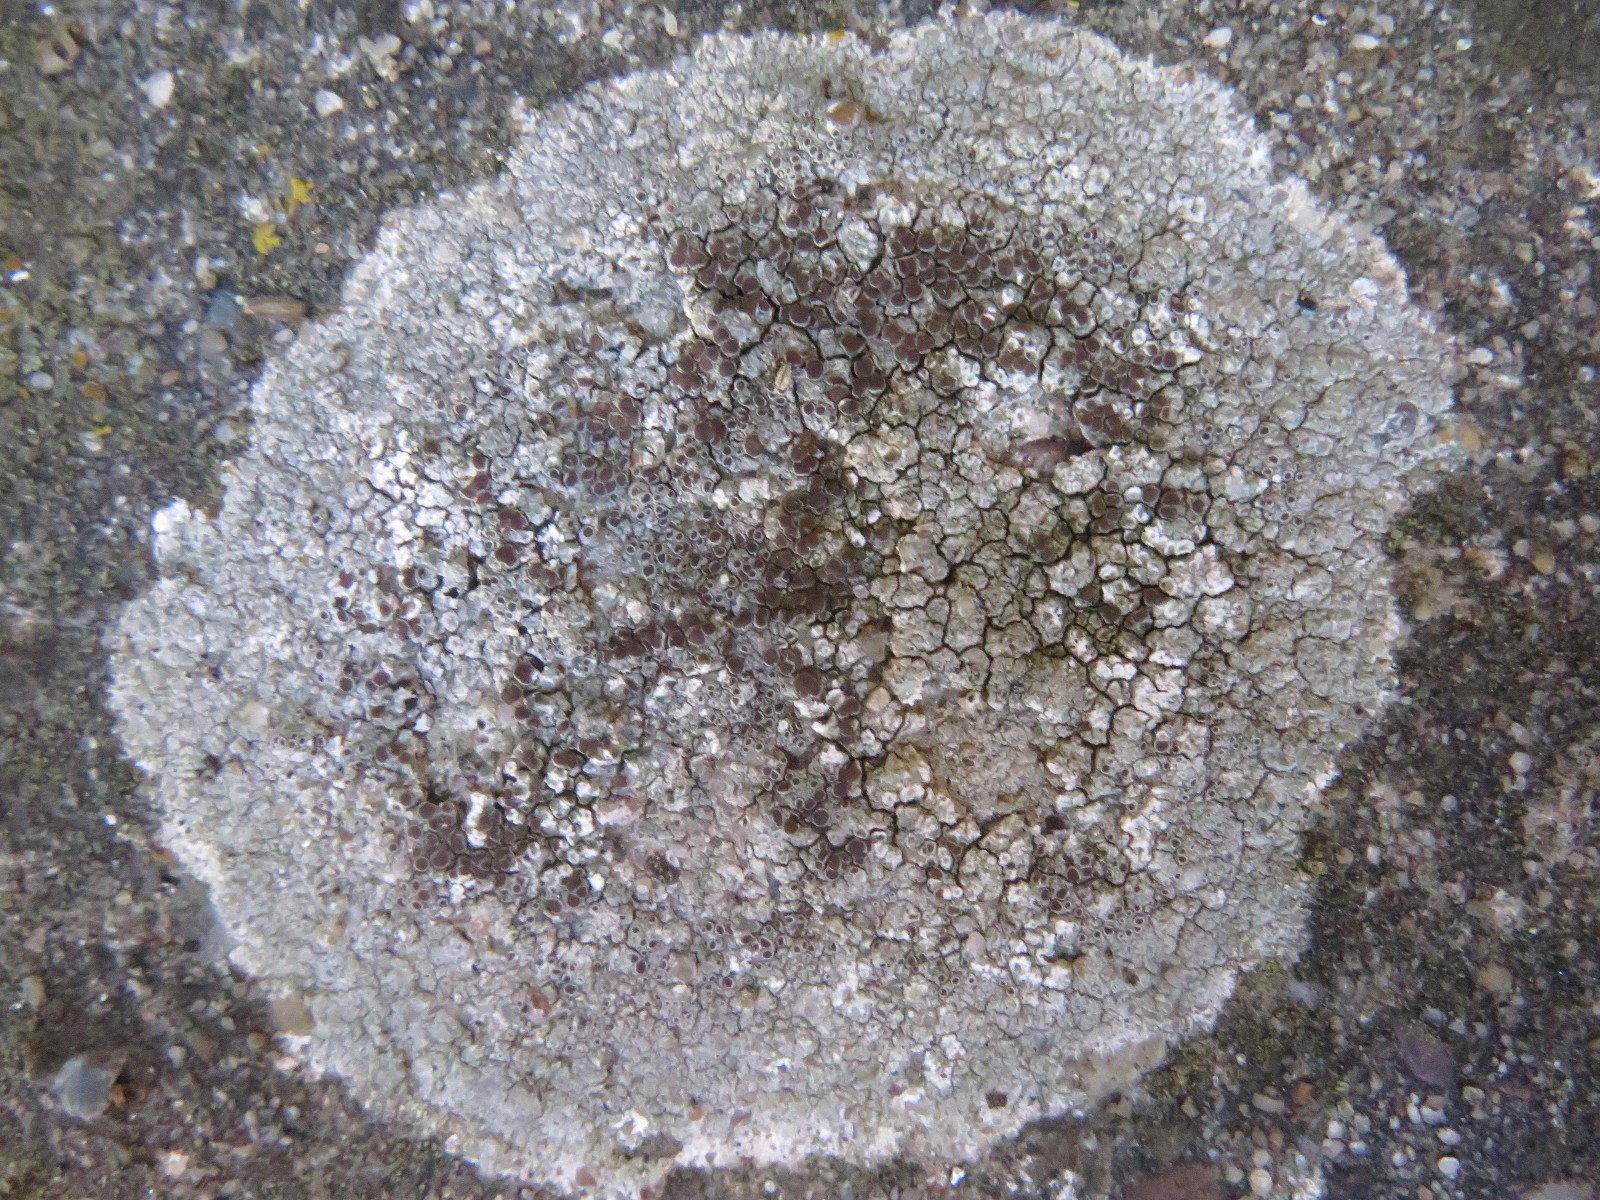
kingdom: Fungi
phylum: Ascomycota
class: Lecanoromycetes
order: Lecanorales
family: Lecanoraceae
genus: Lecanora
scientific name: Lecanora campestris
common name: mur-kantskivelav
